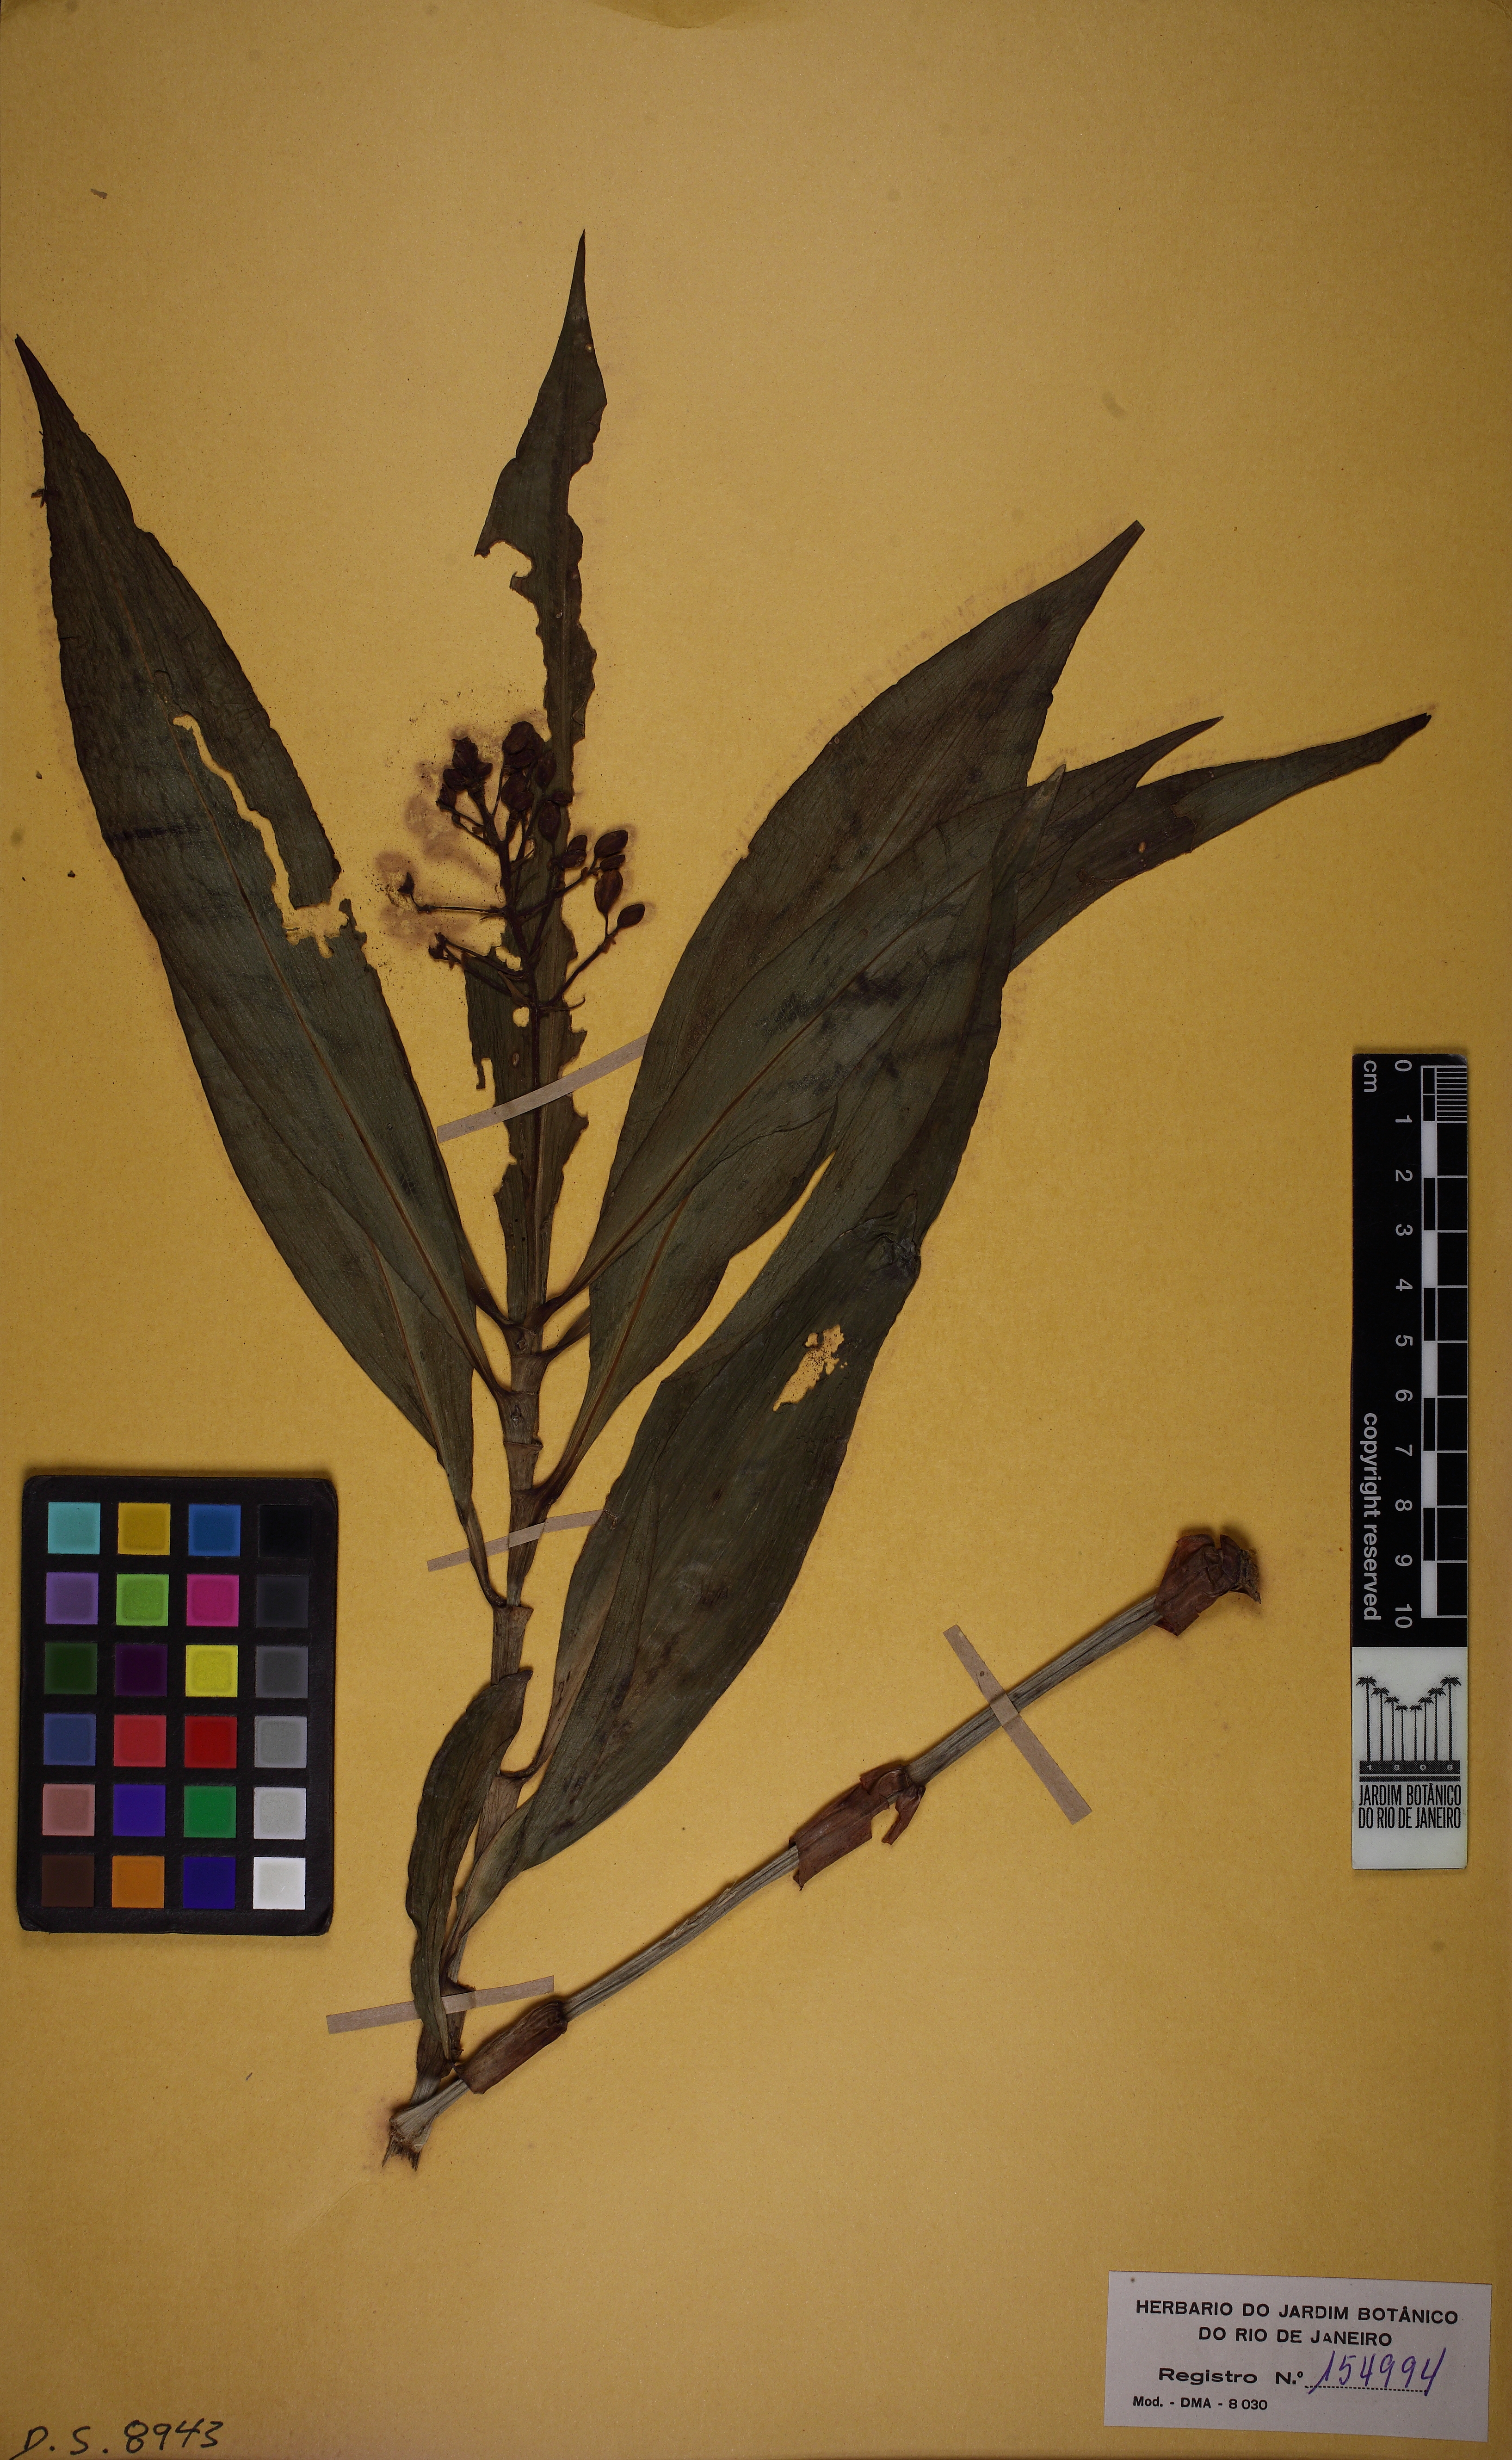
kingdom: Plantae
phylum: Tracheophyta
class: Liliopsida
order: Commelinales
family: Commelinaceae
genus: Dichorisandra
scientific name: Dichorisandra procera
